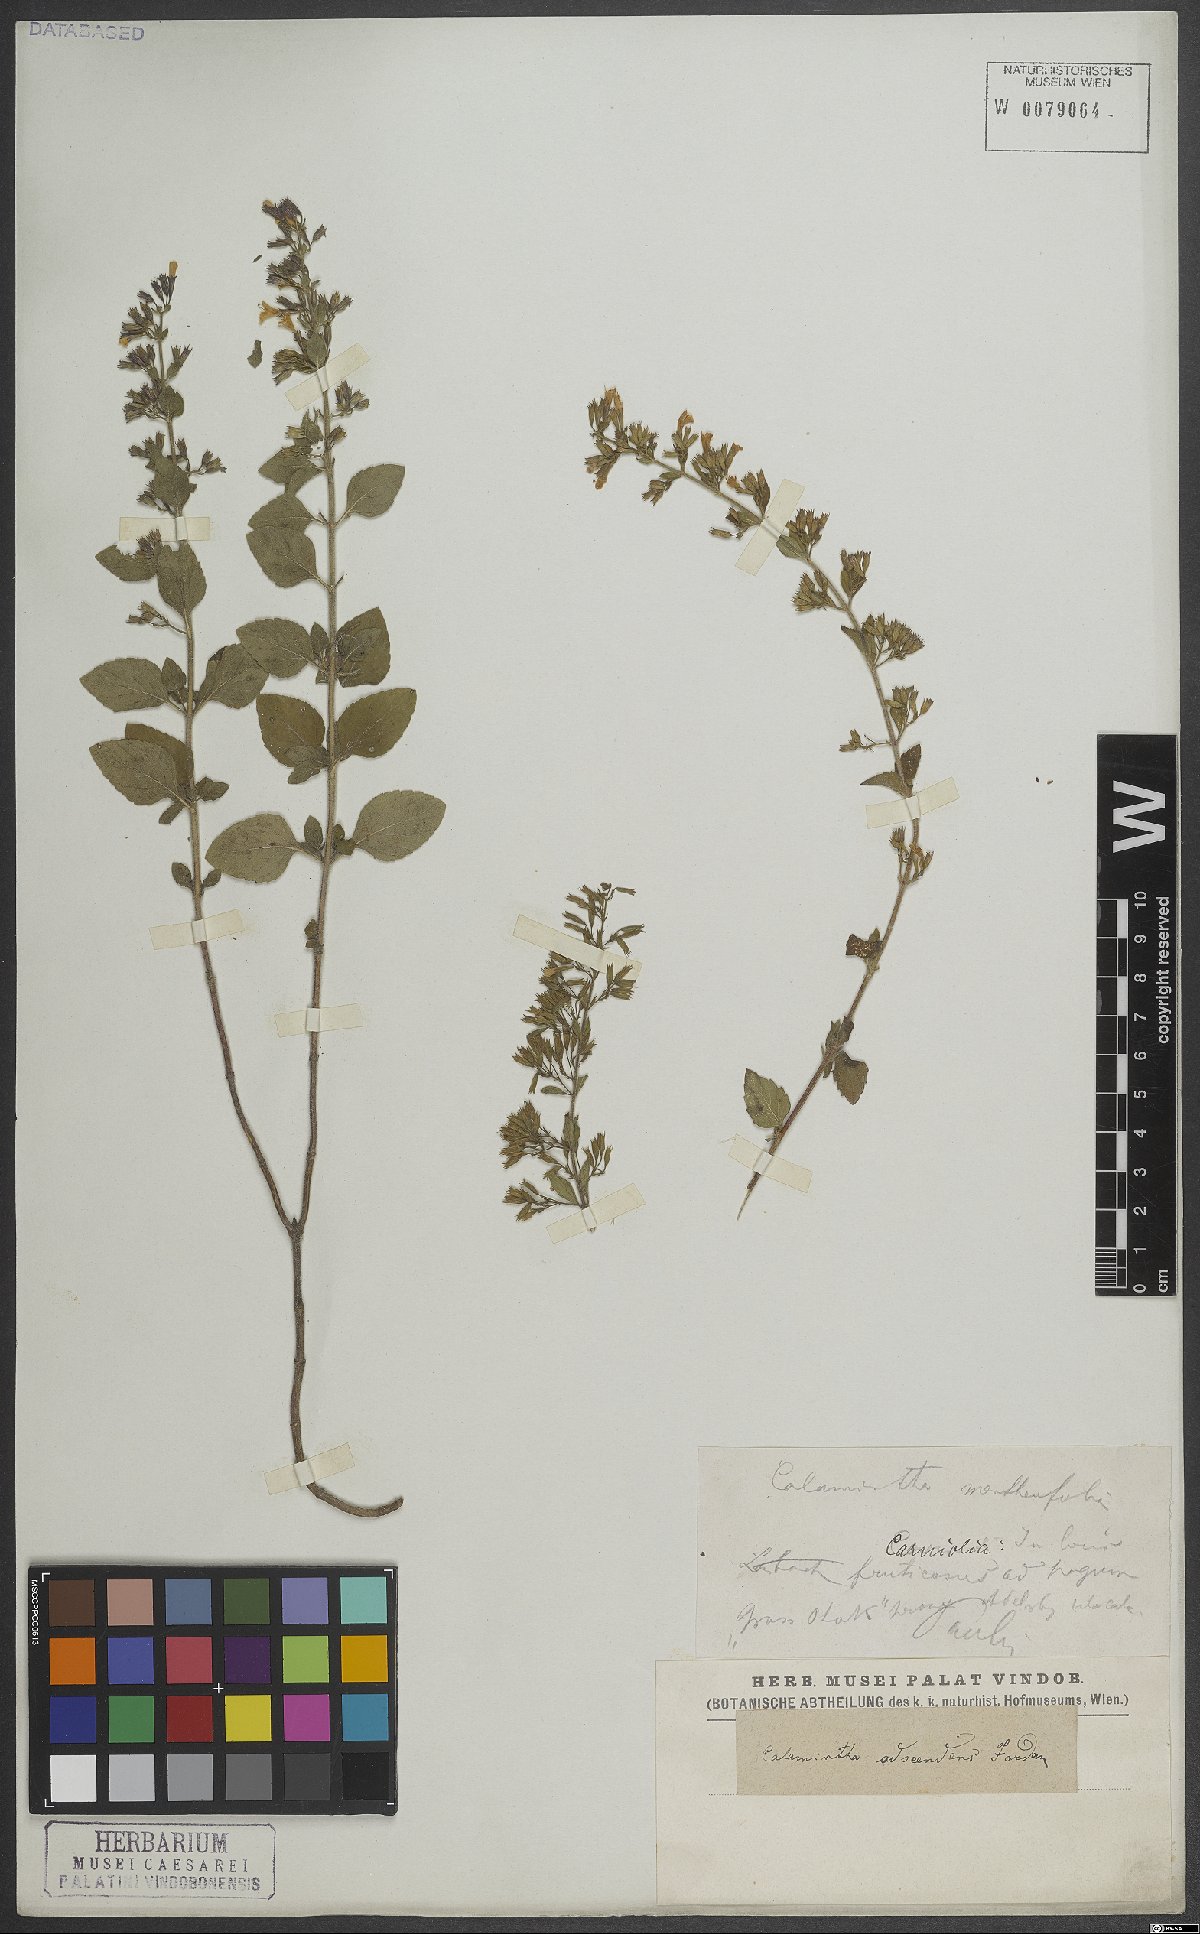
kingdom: Plantae
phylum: Tracheophyta
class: Magnoliopsida
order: Lamiales
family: Lamiaceae
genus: Clinopodium
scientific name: Clinopodium nepeta
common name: Lesser calamint
